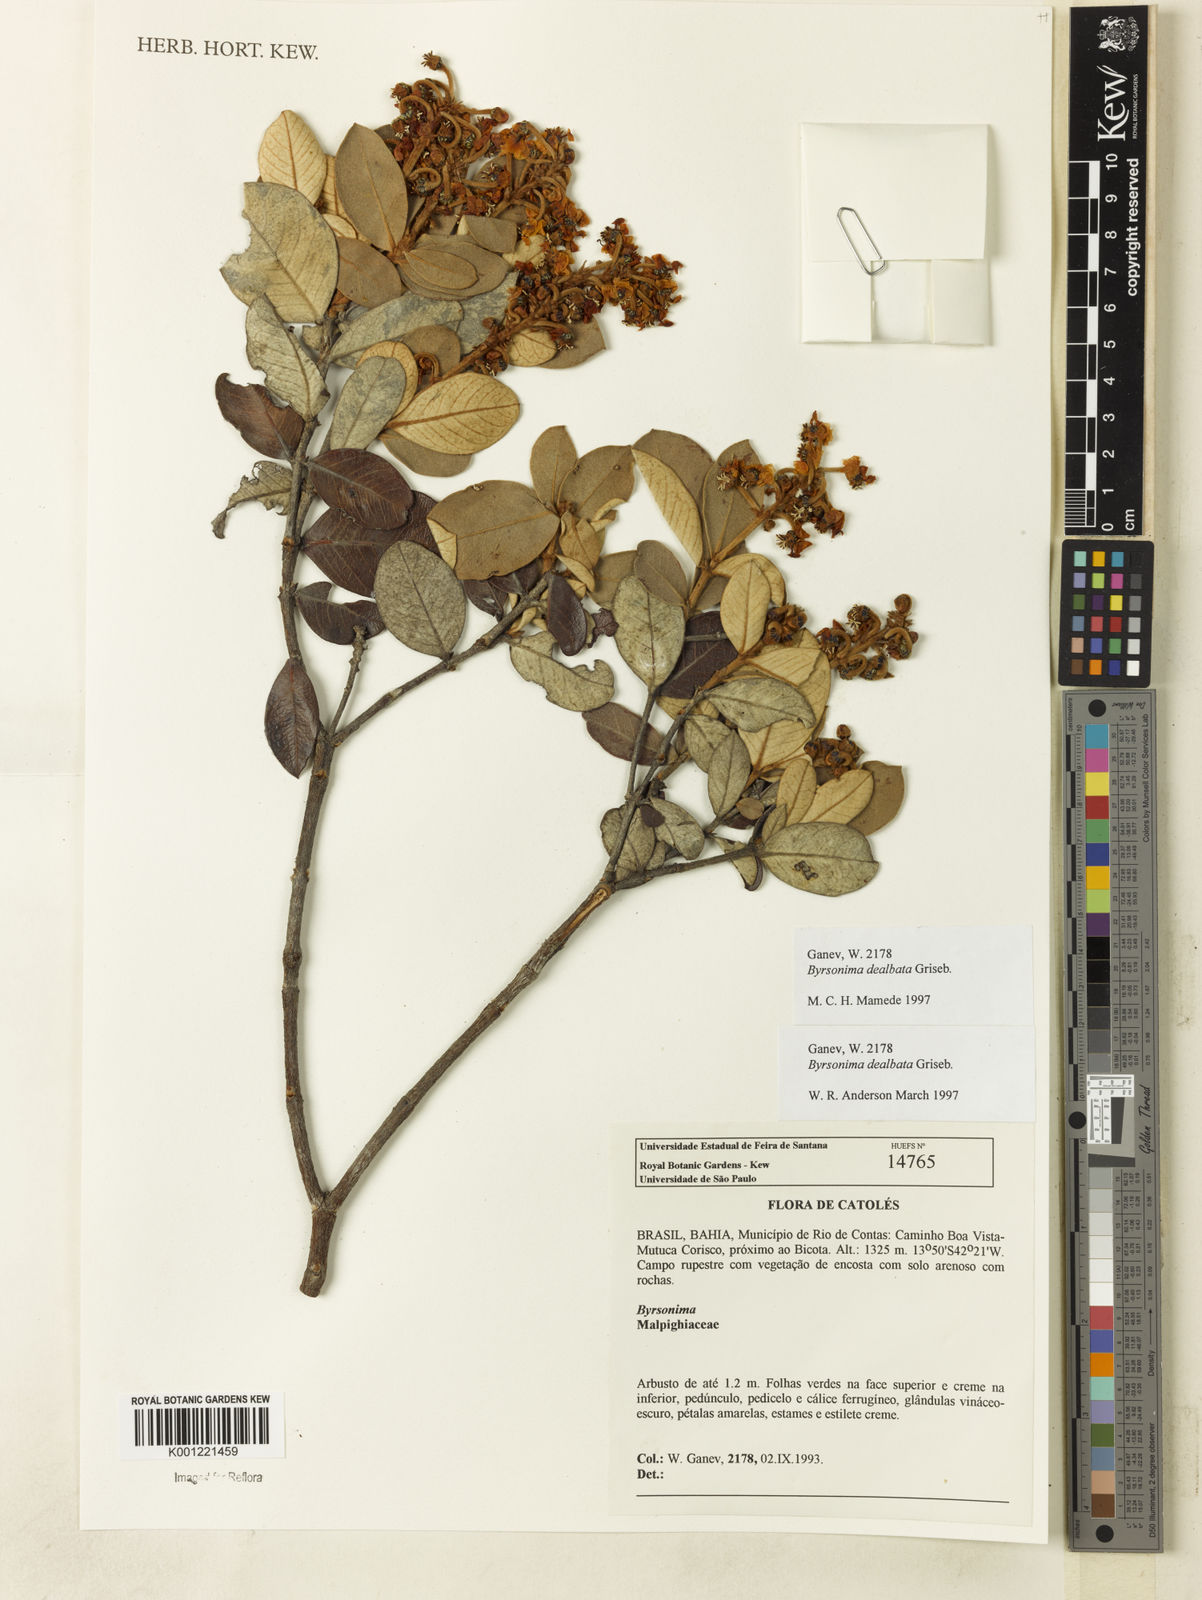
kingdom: Plantae
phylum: Tracheophyta
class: Magnoliopsida
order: Malpighiales
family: Malpighiaceae
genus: Byrsonima
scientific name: Byrsonima dealbata
